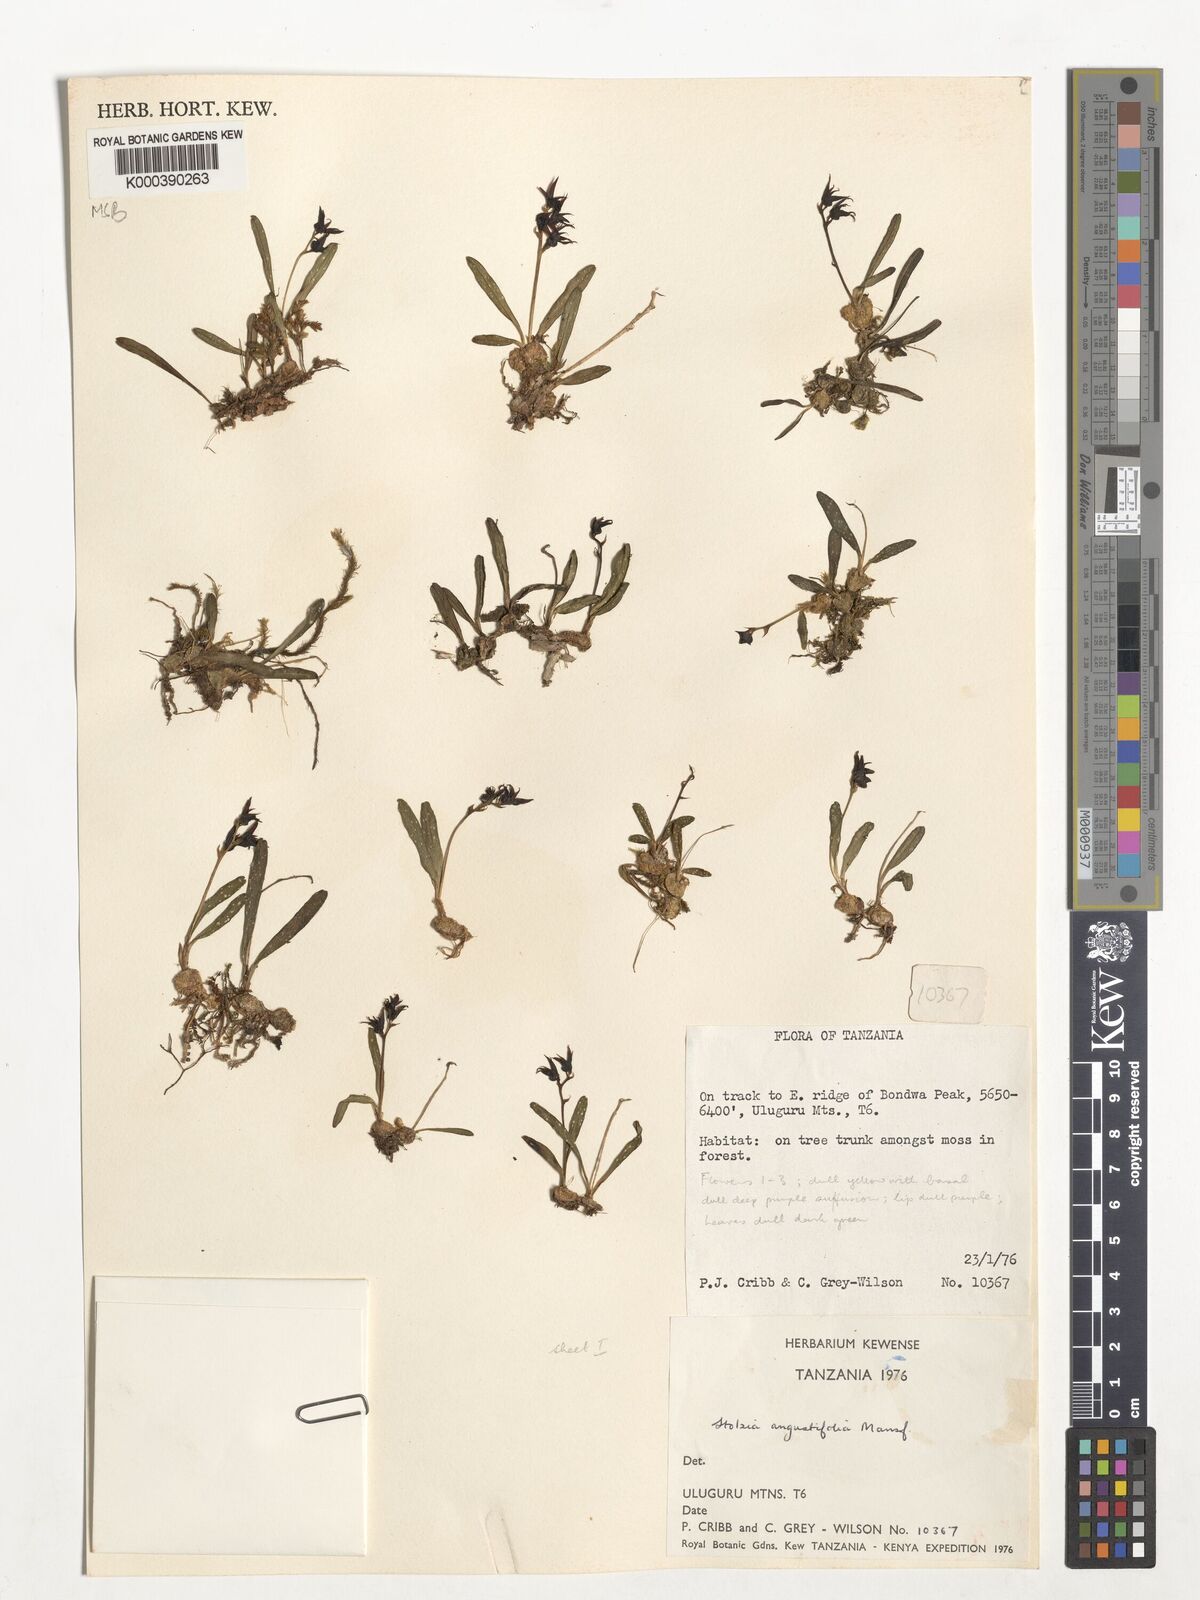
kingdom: Plantae
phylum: Tracheophyta
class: Liliopsida
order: Asparagales
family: Orchidaceae
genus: Porpax
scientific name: Porpax angustifolia
